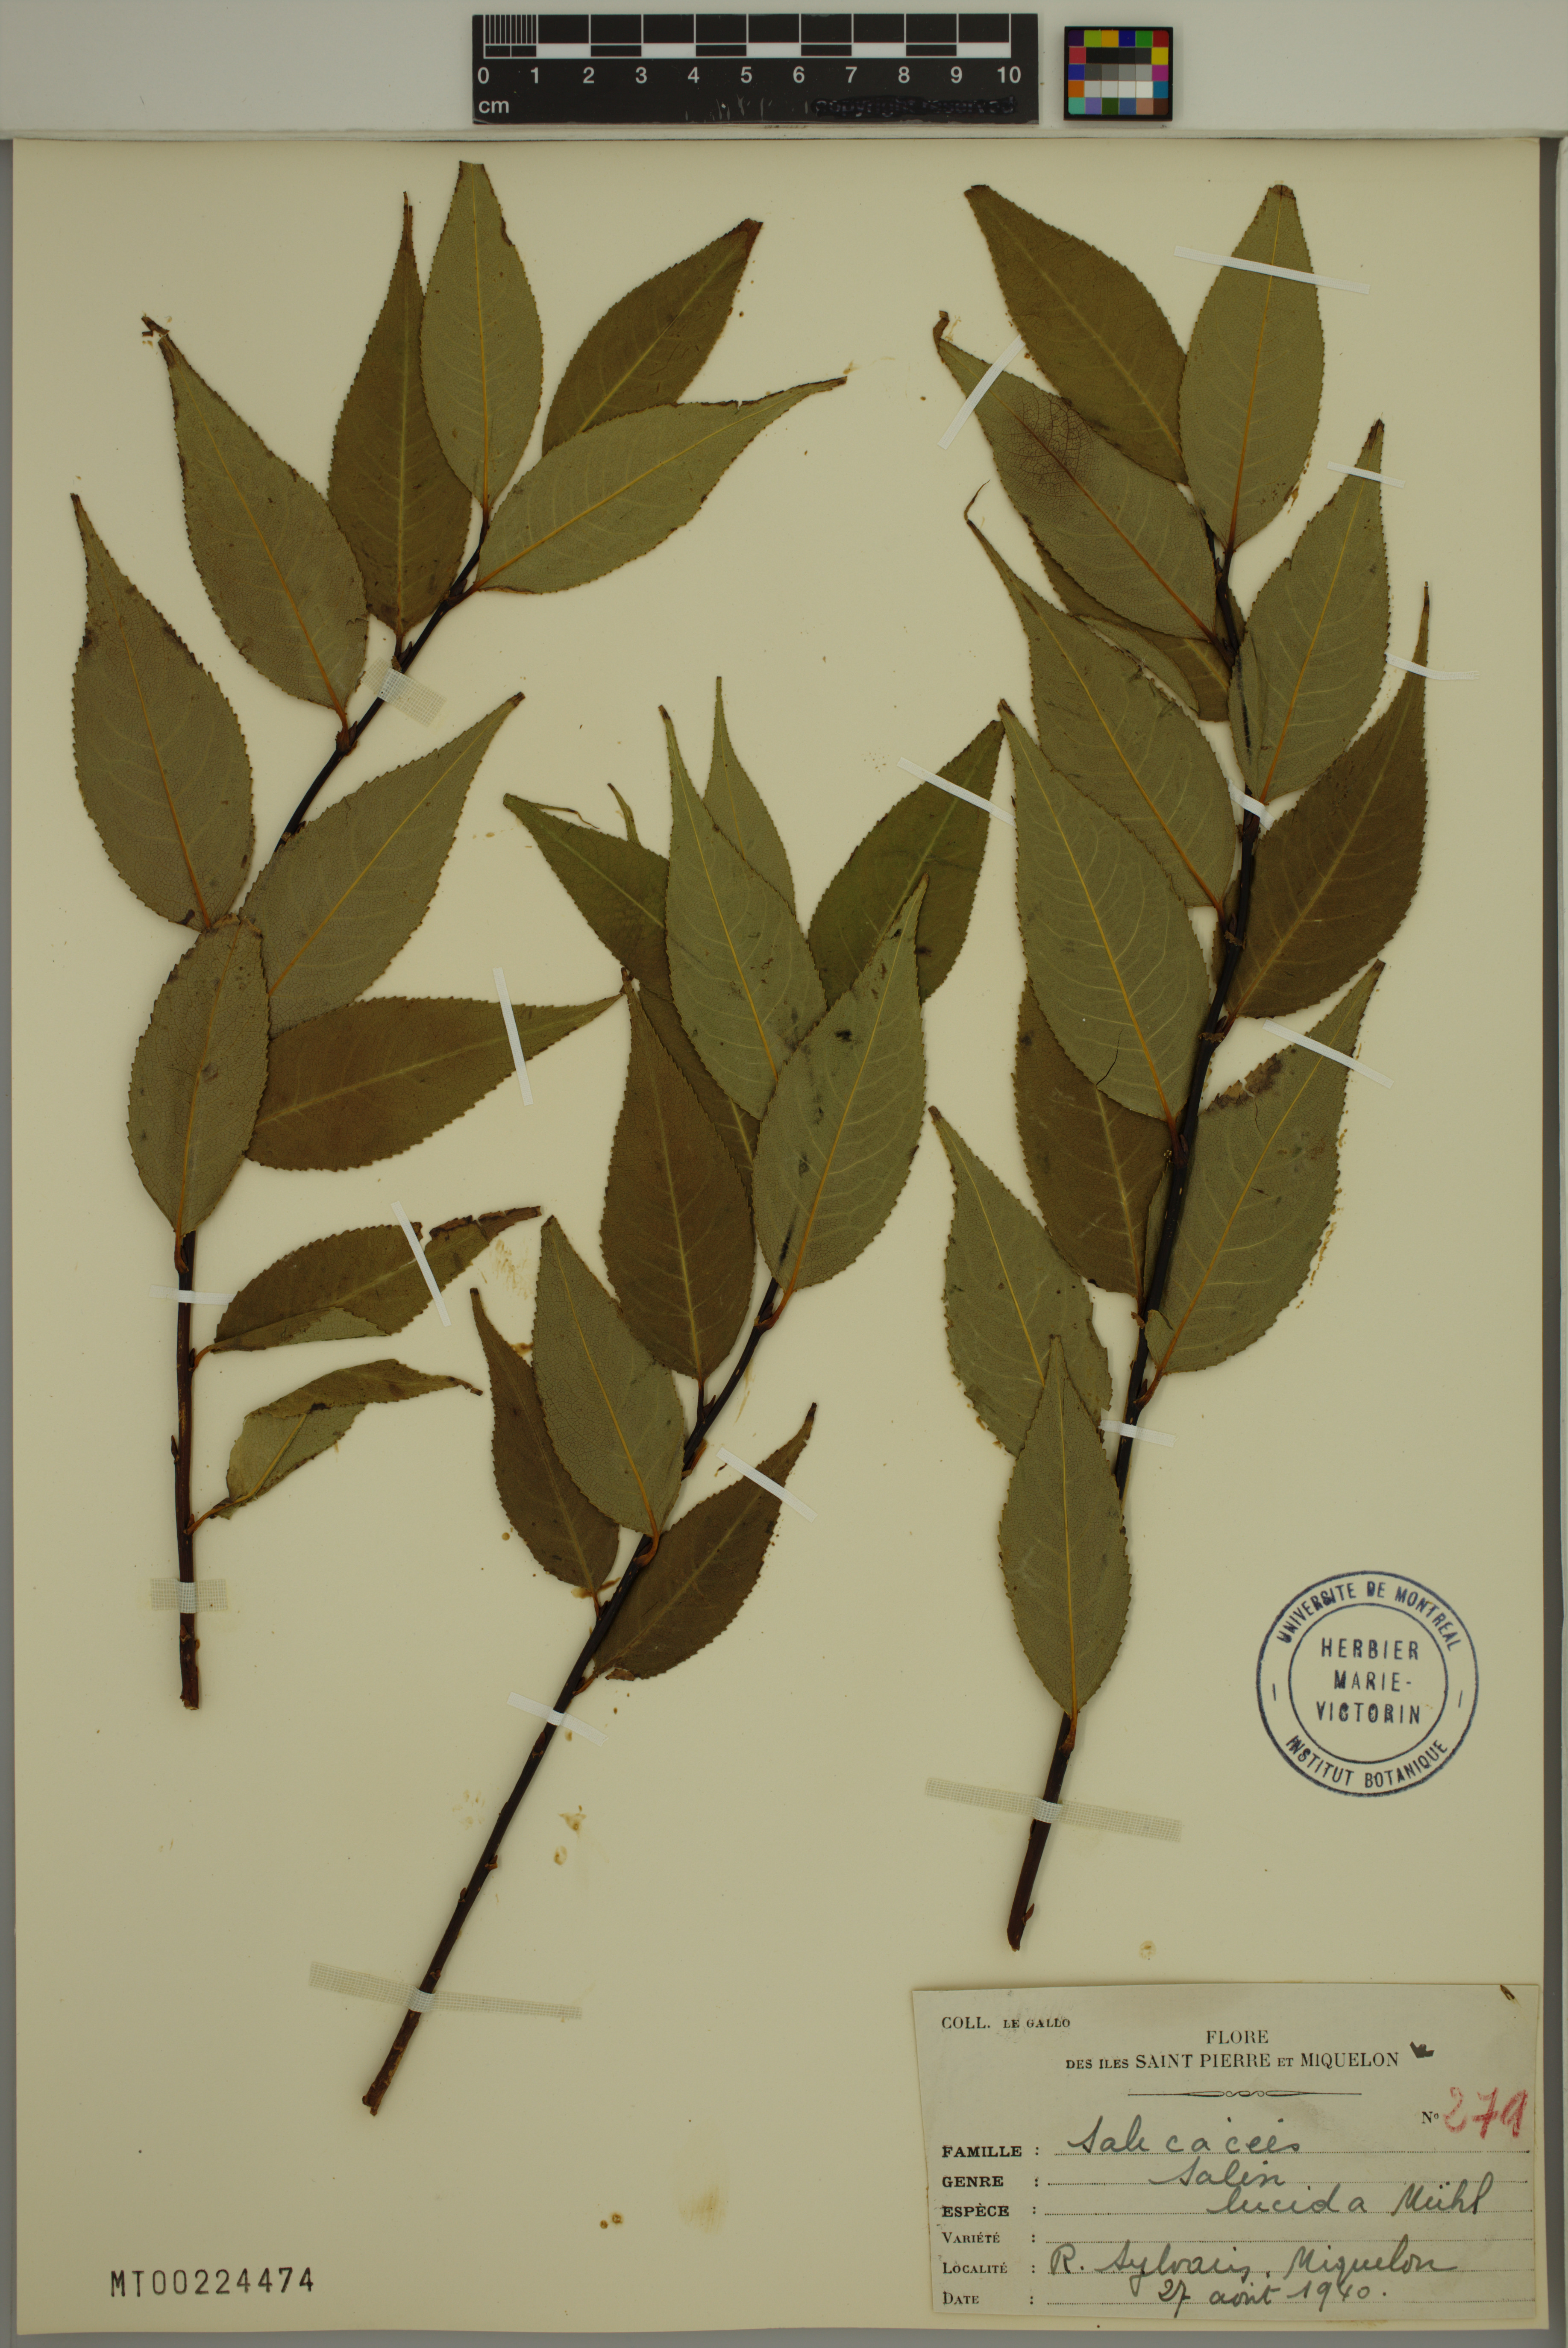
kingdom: Plantae
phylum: Tracheophyta
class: Magnoliopsida
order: Malpighiales
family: Salicaceae
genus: Salix
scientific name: Salix lucida
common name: Shining willow
